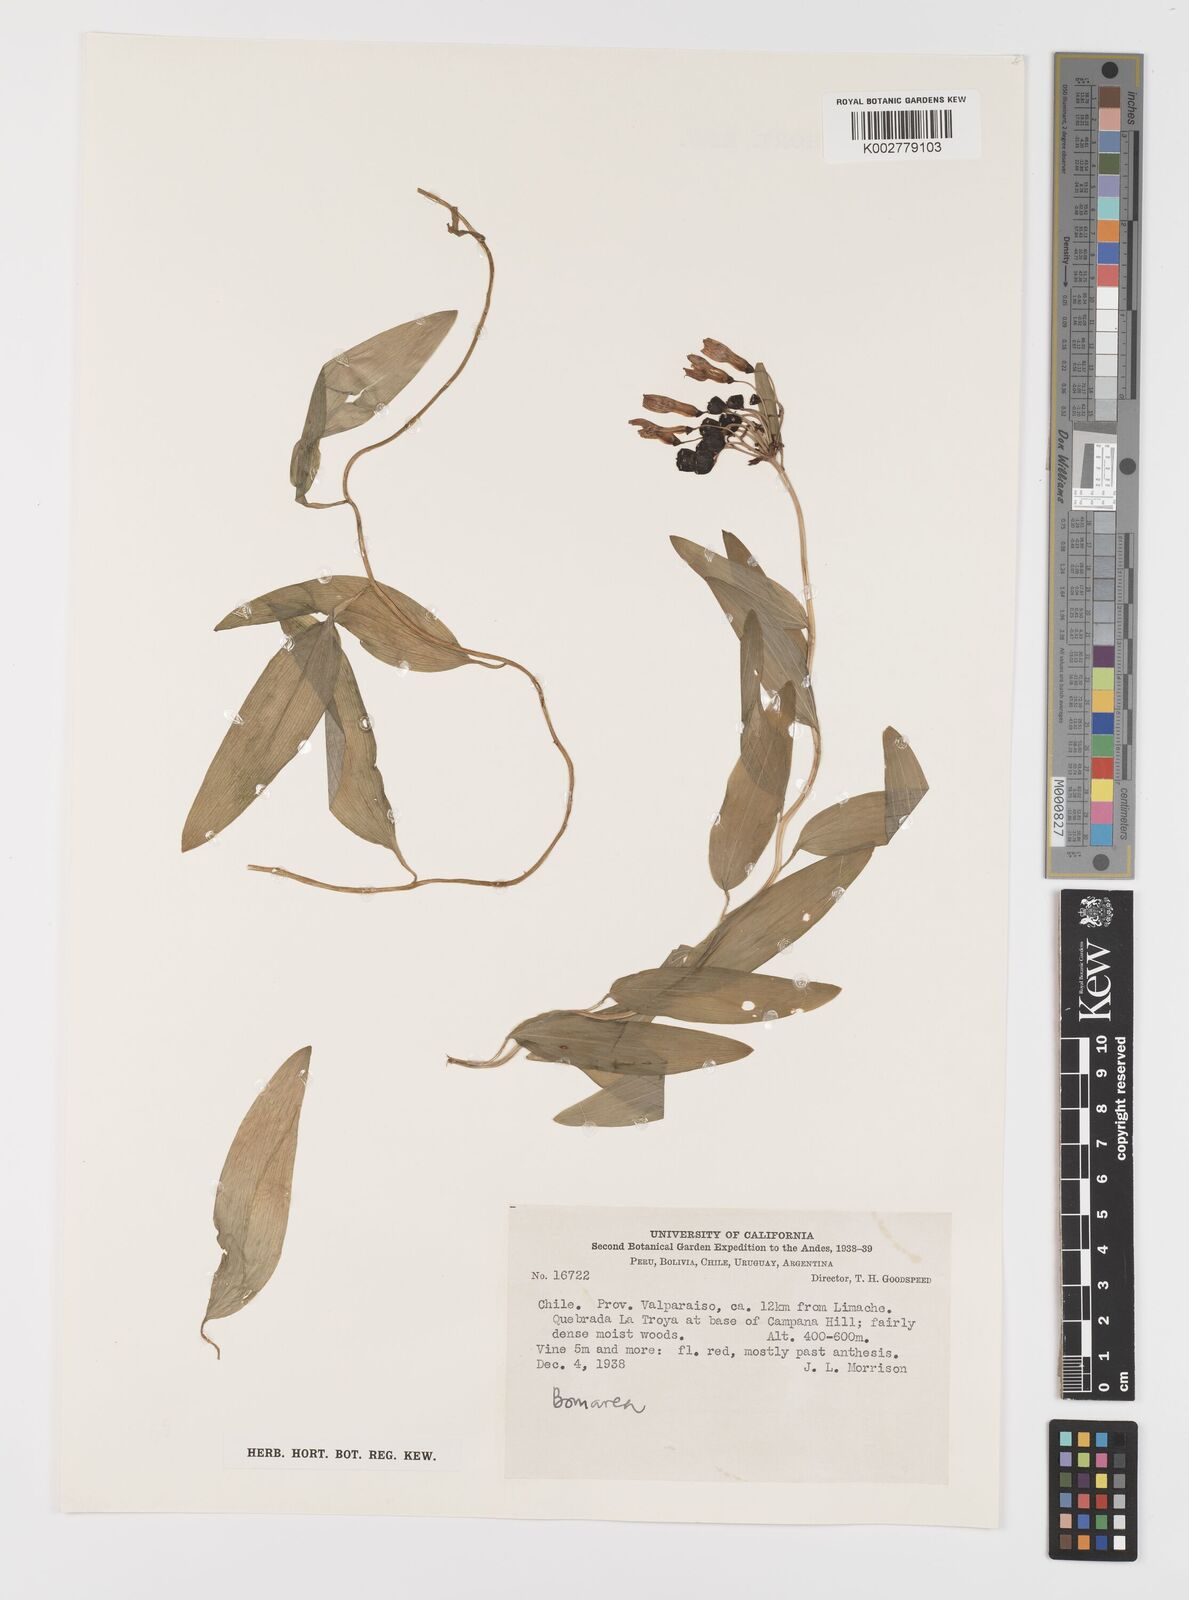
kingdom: Plantae
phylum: Tracheophyta
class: Liliopsida
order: Liliales
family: Alstroemeriaceae
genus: Bomarea
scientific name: Bomarea edulis
